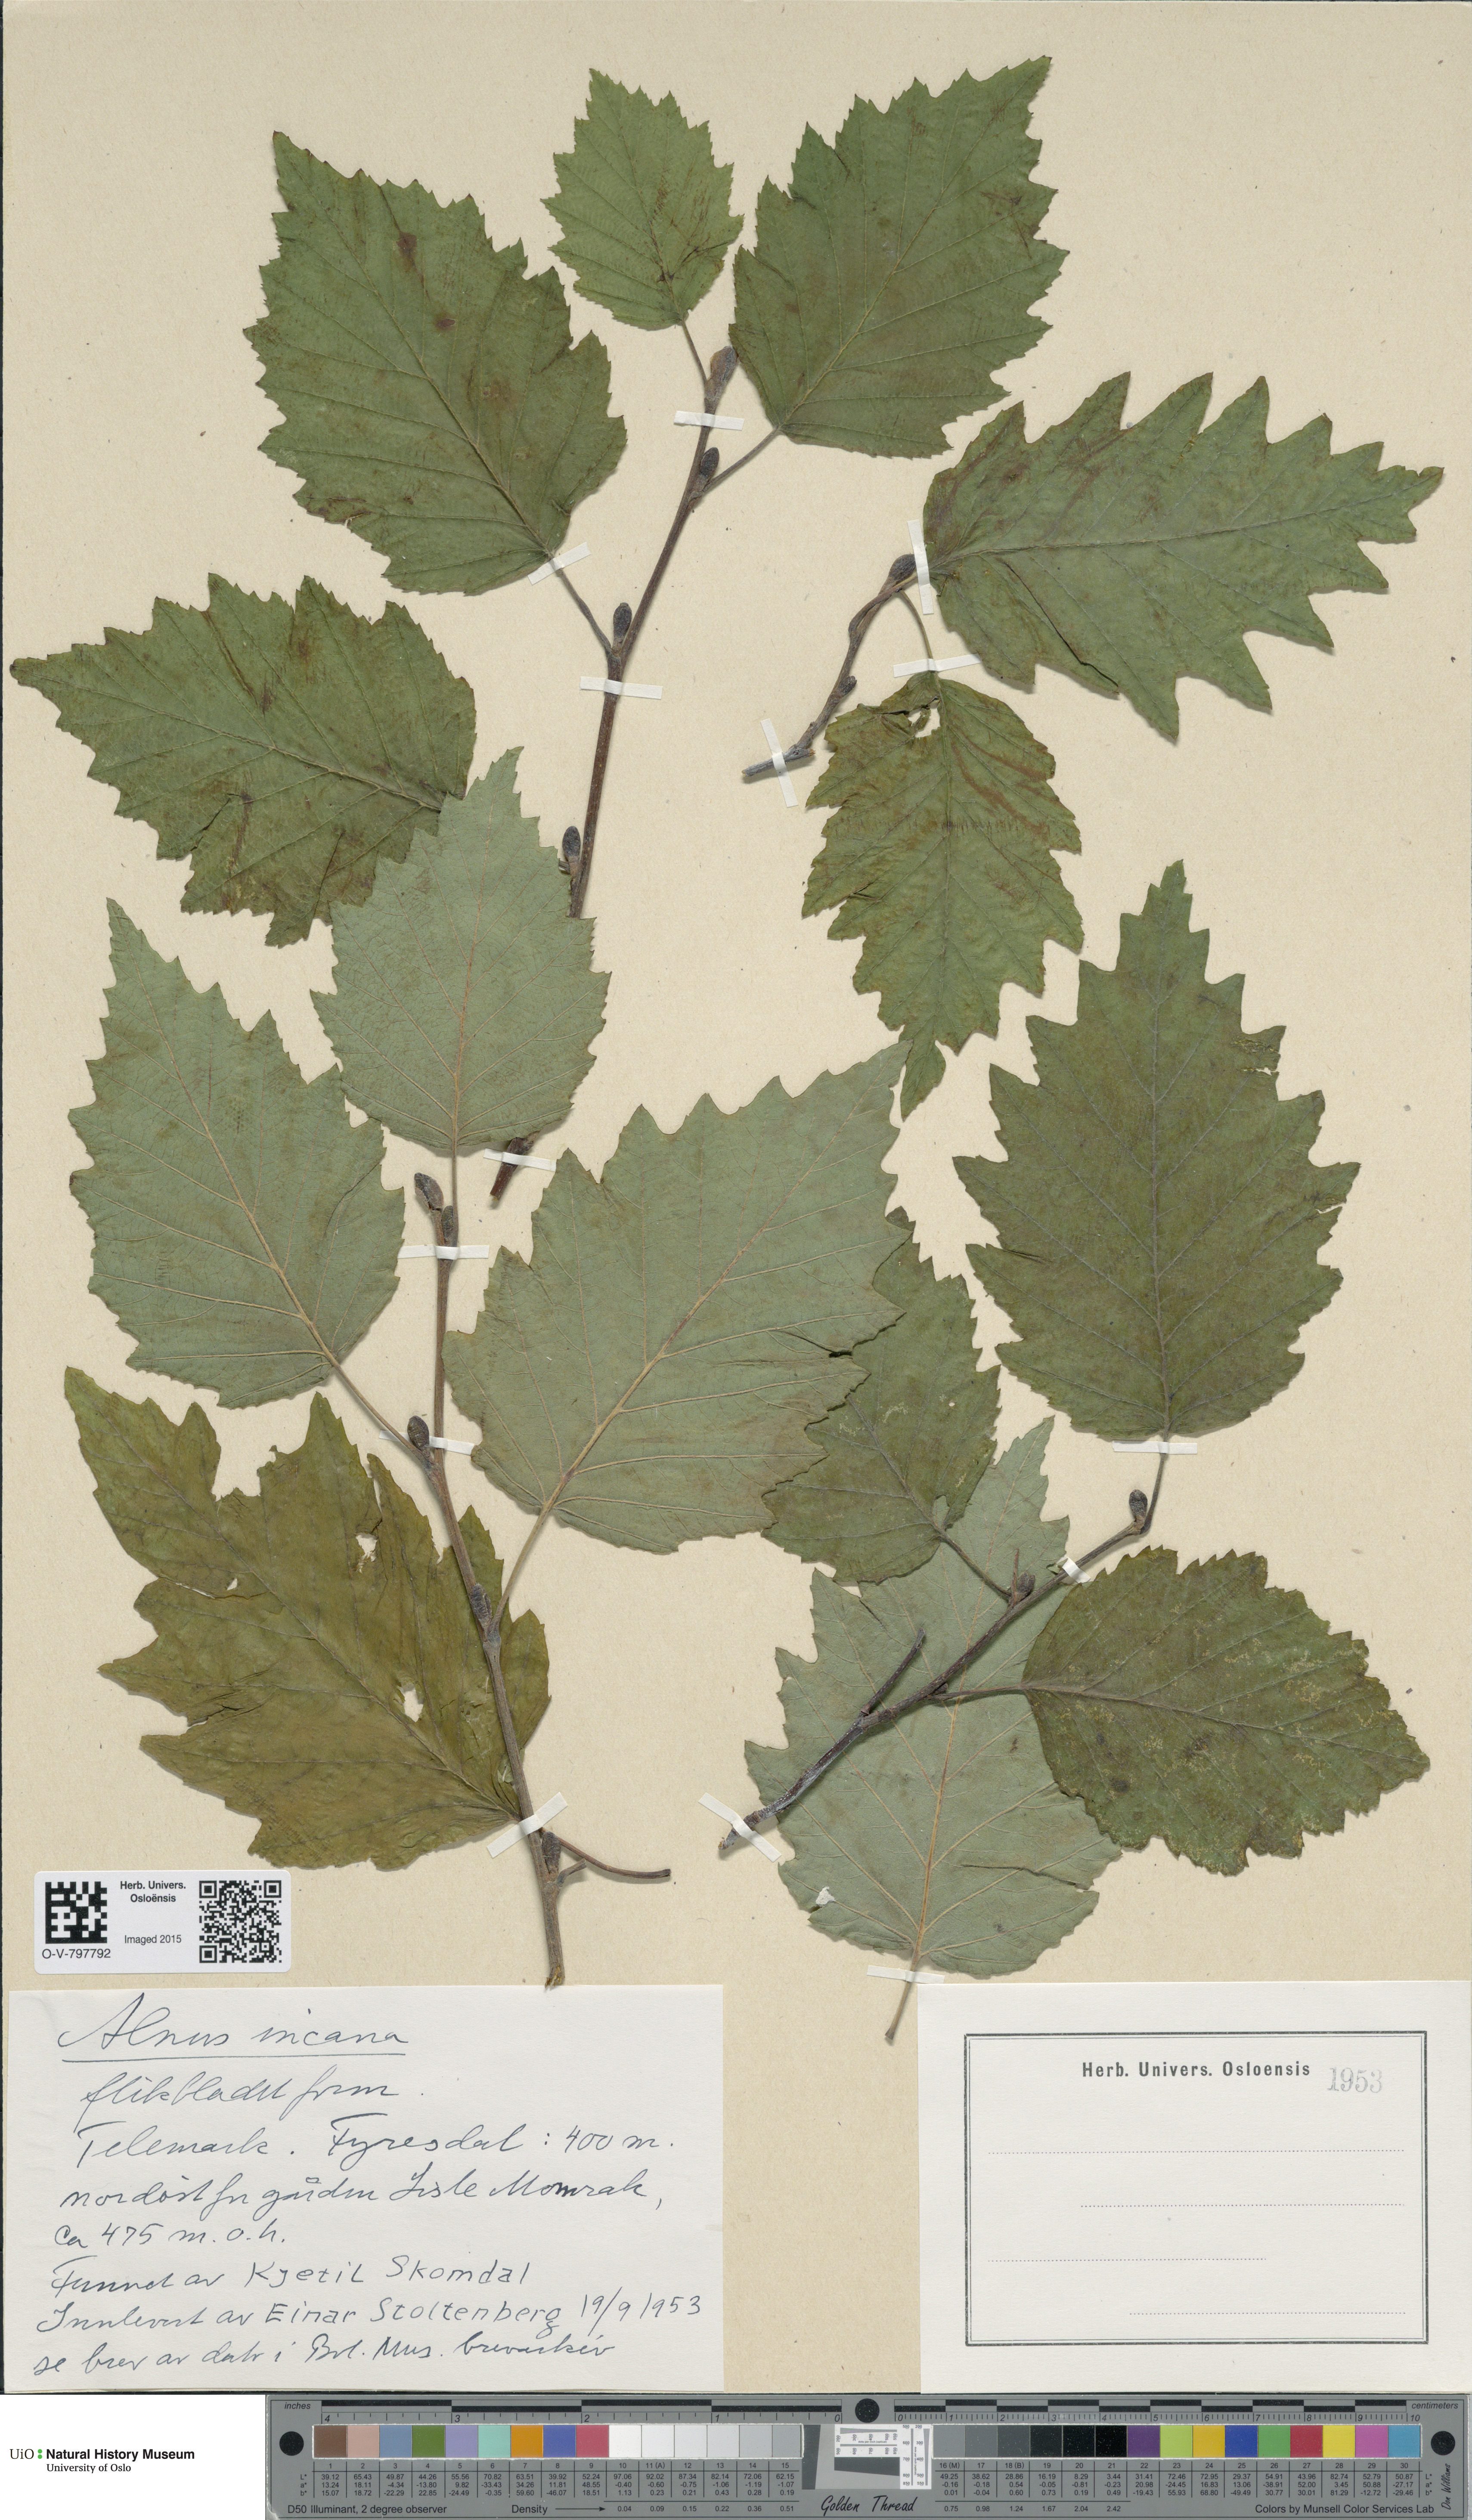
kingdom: Plantae
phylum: Tracheophyta
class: Magnoliopsida
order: Fagales
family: Betulaceae
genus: Alnus
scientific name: Alnus incana
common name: Grey alder
